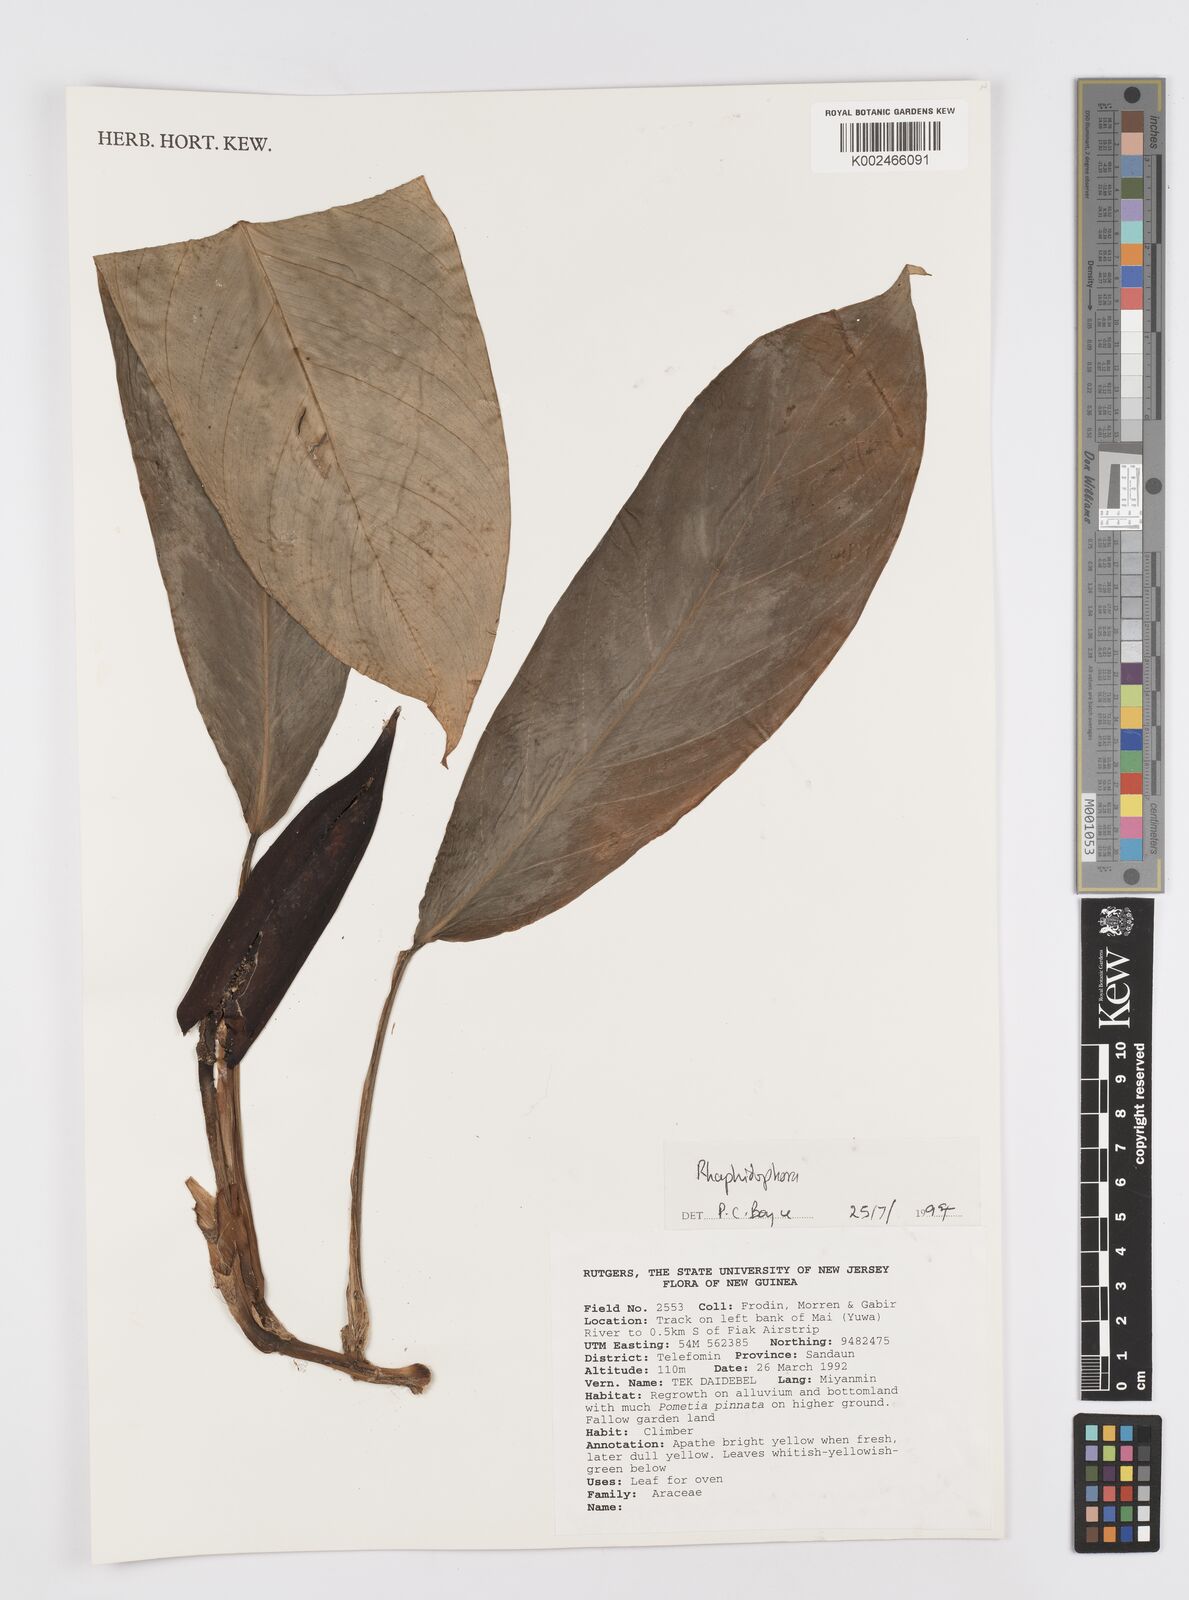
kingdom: Plantae
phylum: Tracheophyta
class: Liliopsida
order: Alismatales
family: Araceae
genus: Rhaphidophora
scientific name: Rhaphidophora schlechteri
